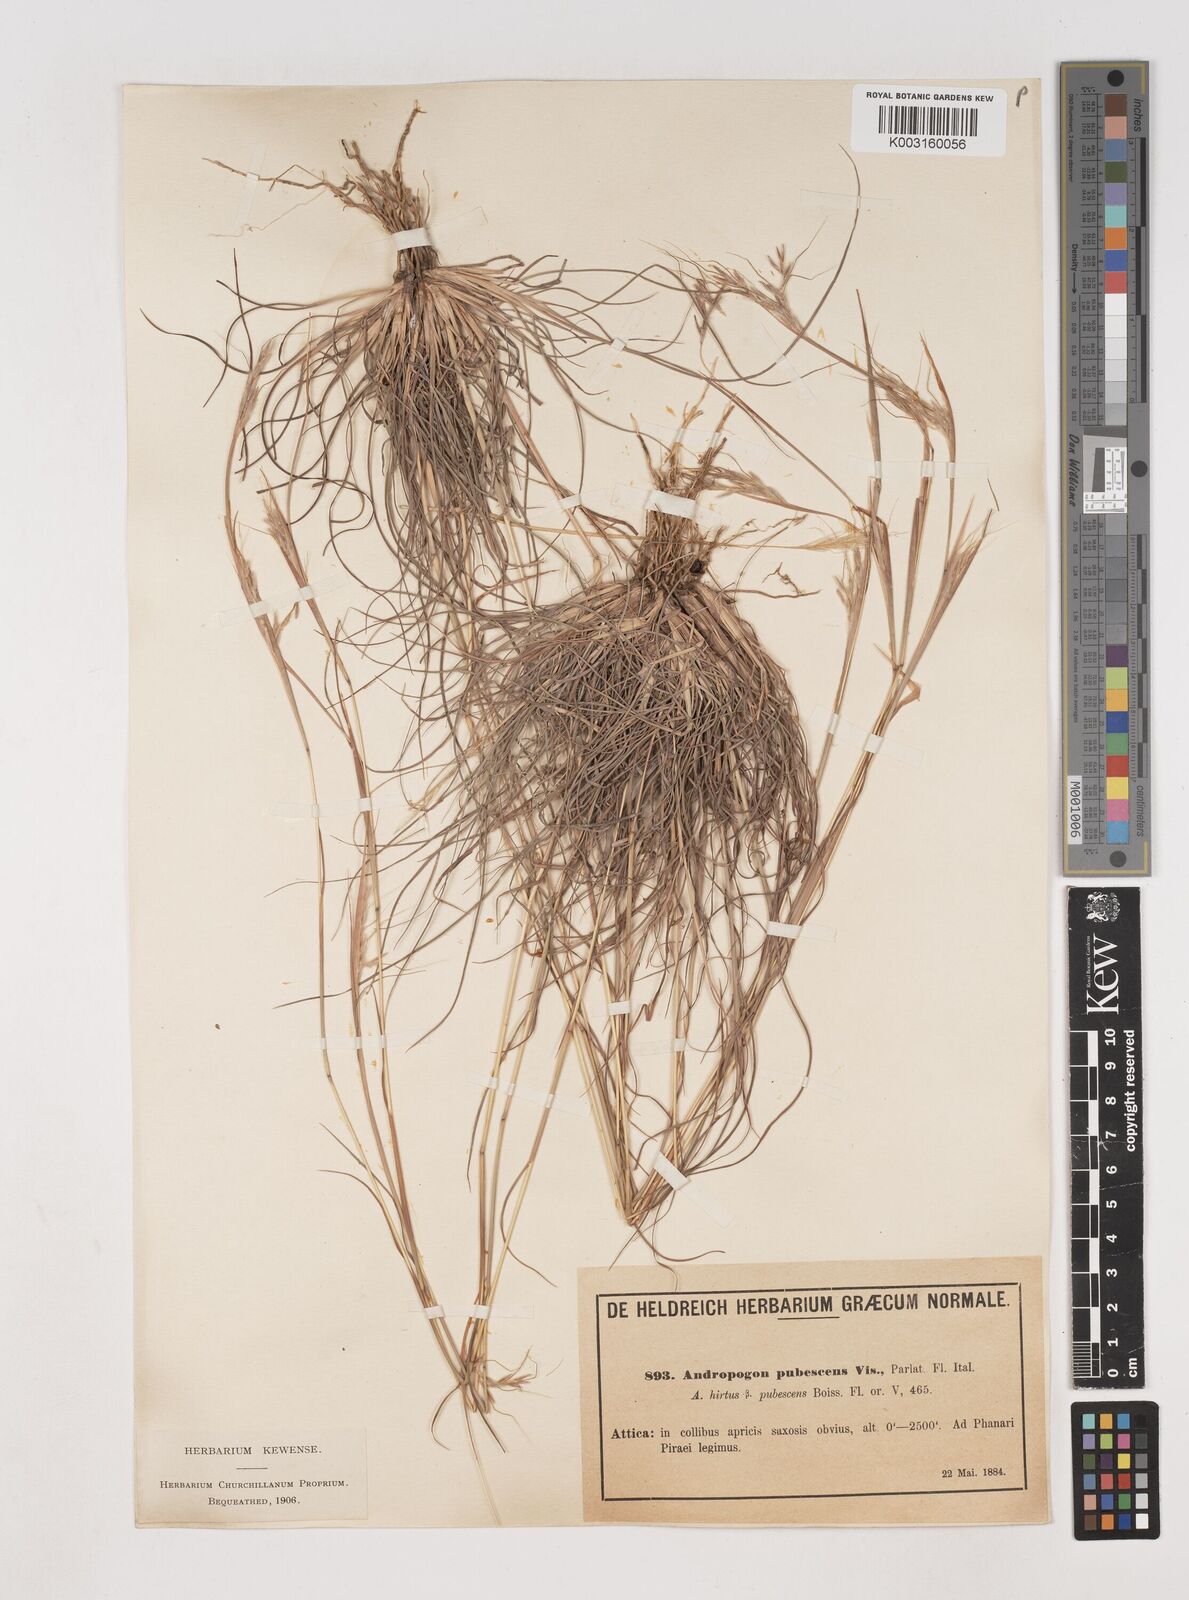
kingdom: Plantae
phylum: Tracheophyta
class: Liliopsida
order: Poales
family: Poaceae
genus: Hyparrhenia
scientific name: Hyparrhenia hirta
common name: Thatching grass
